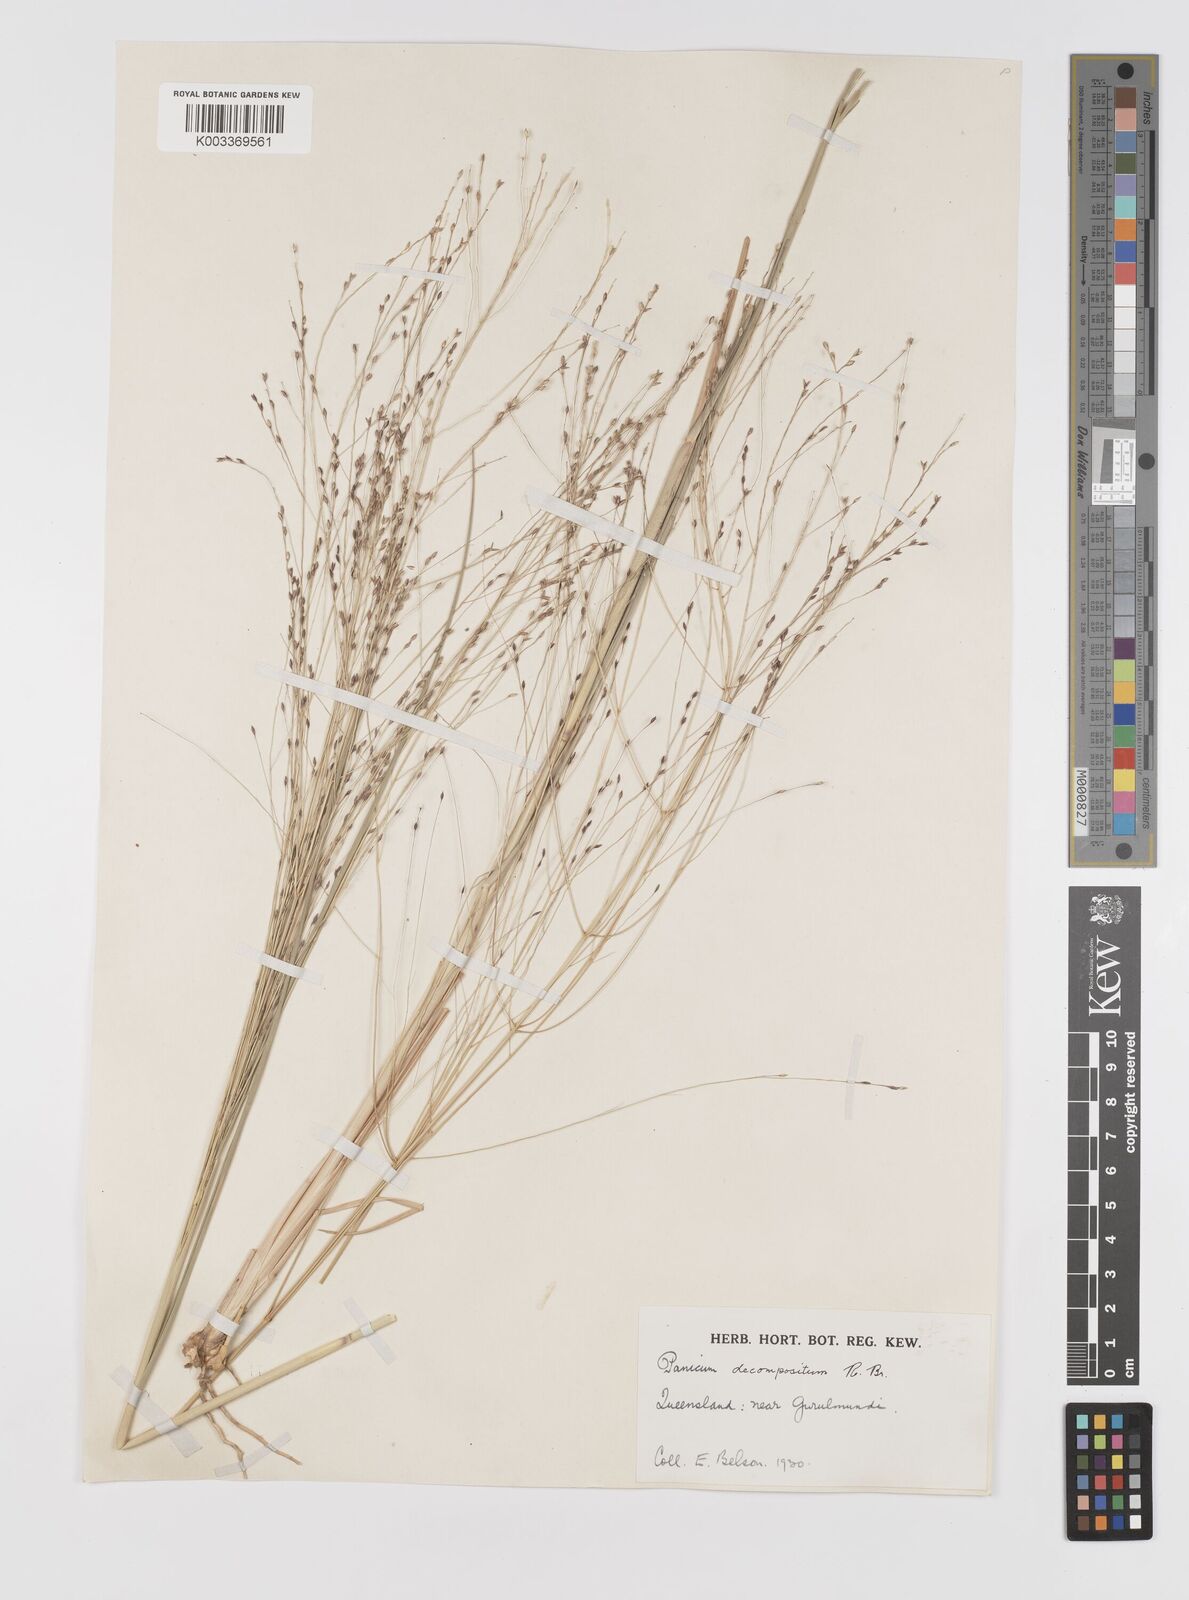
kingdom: Plantae
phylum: Tracheophyta
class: Liliopsida
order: Poales
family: Poaceae
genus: Panicum
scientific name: Panicum decompositum
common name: Australian millet
